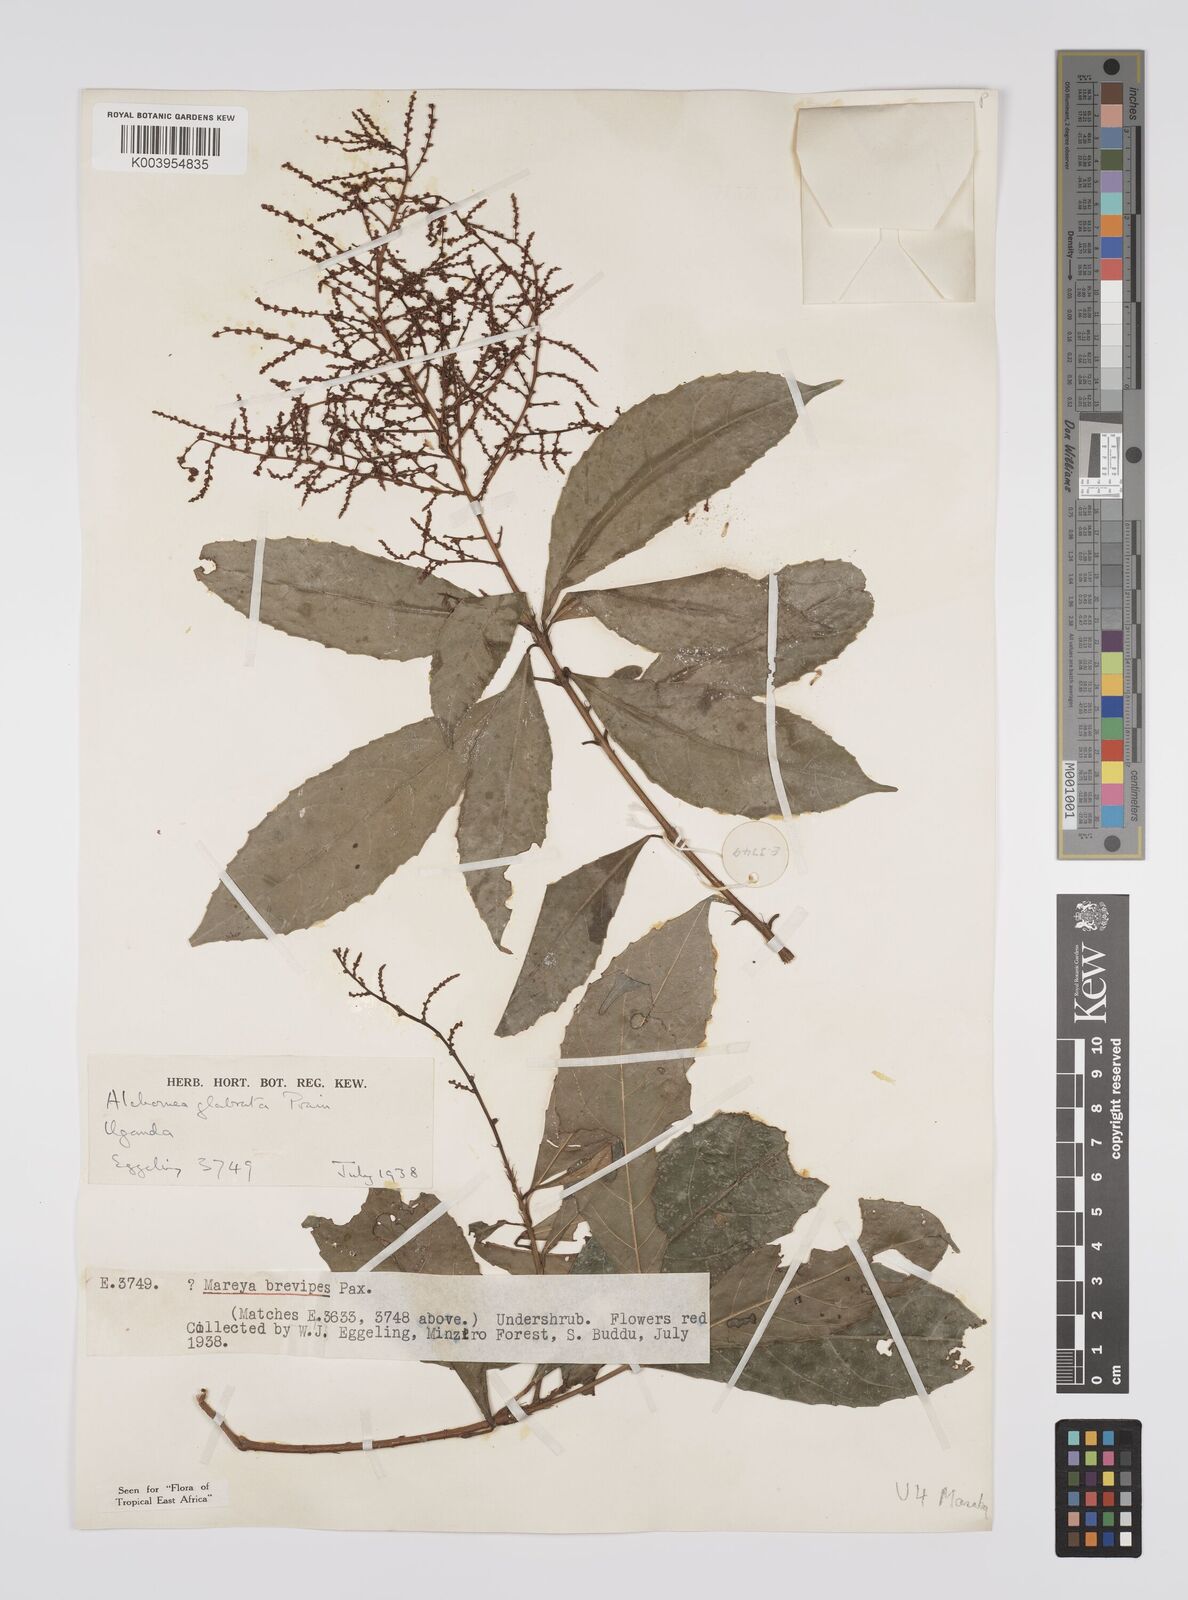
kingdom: Plantae
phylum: Tracheophyta
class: Magnoliopsida
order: Malpighiales
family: Euphorbiaceae
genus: Alchornea
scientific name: Alchornea hirtella
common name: Forest bead-string
